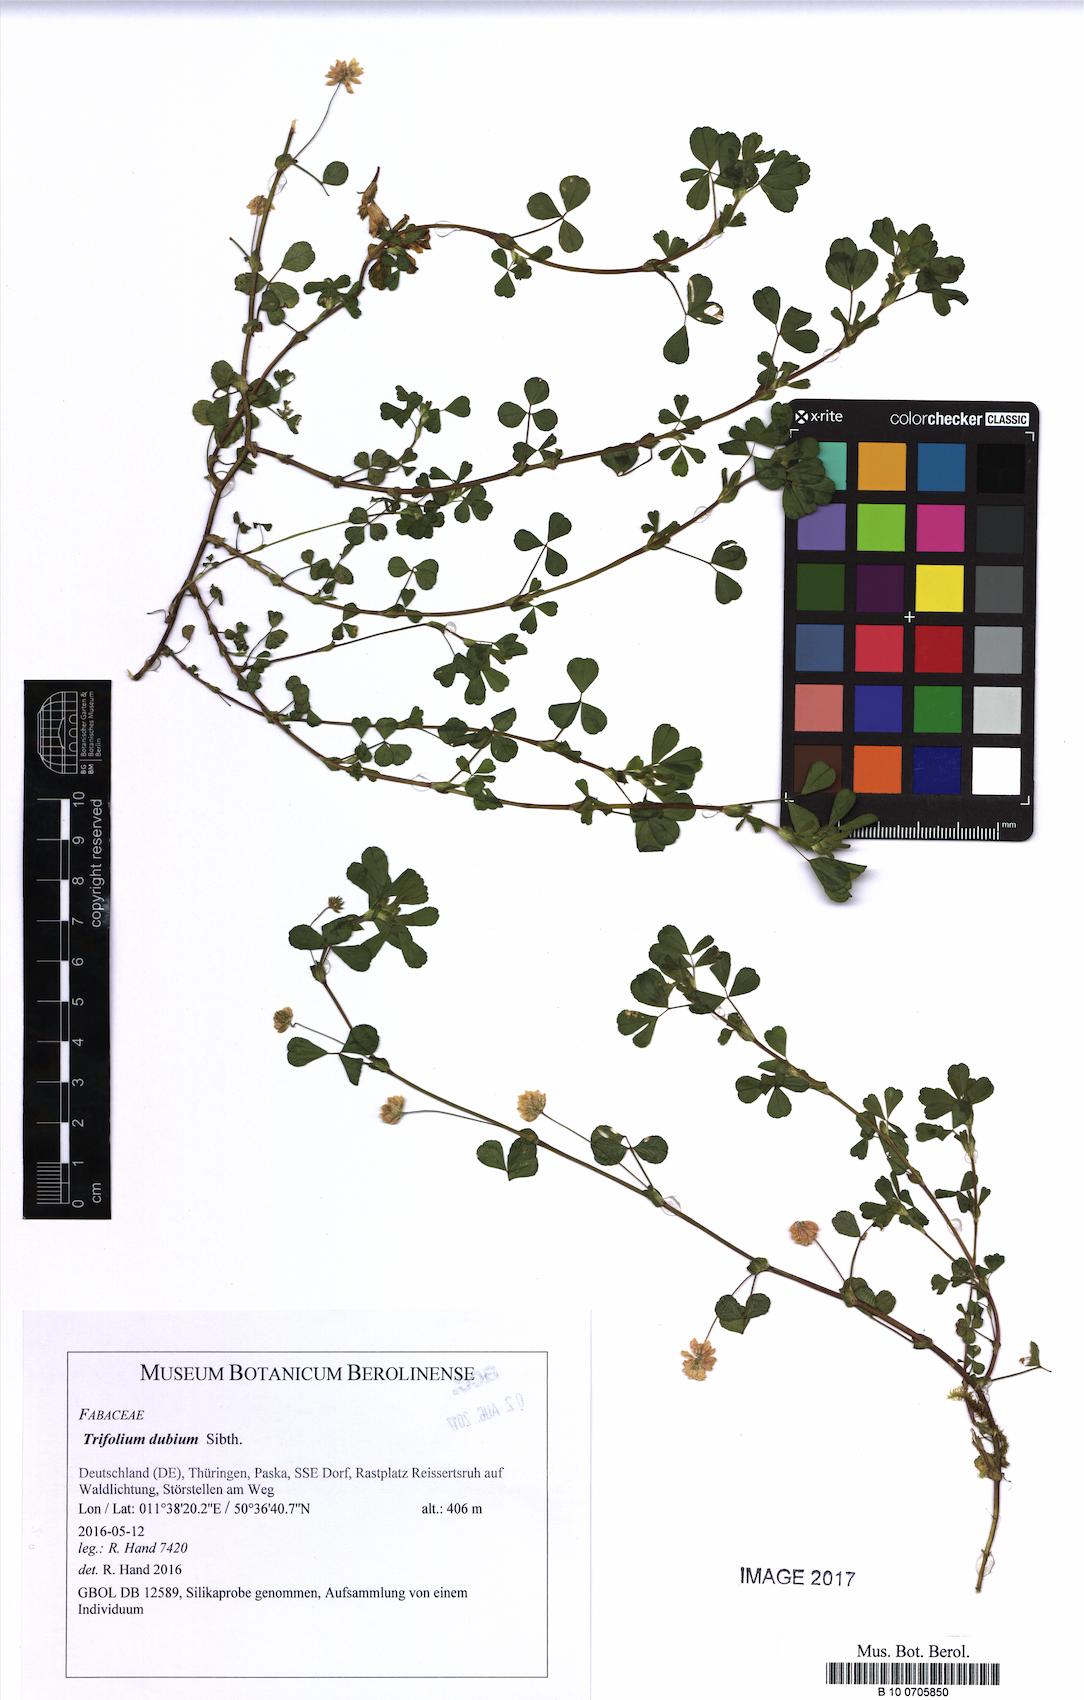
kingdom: Plantae
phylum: Tracheophyta
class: Magnoliopsida
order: Fabales
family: Fabaceae
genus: Trifolium
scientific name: Trifolium dubium
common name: Suckling clover
